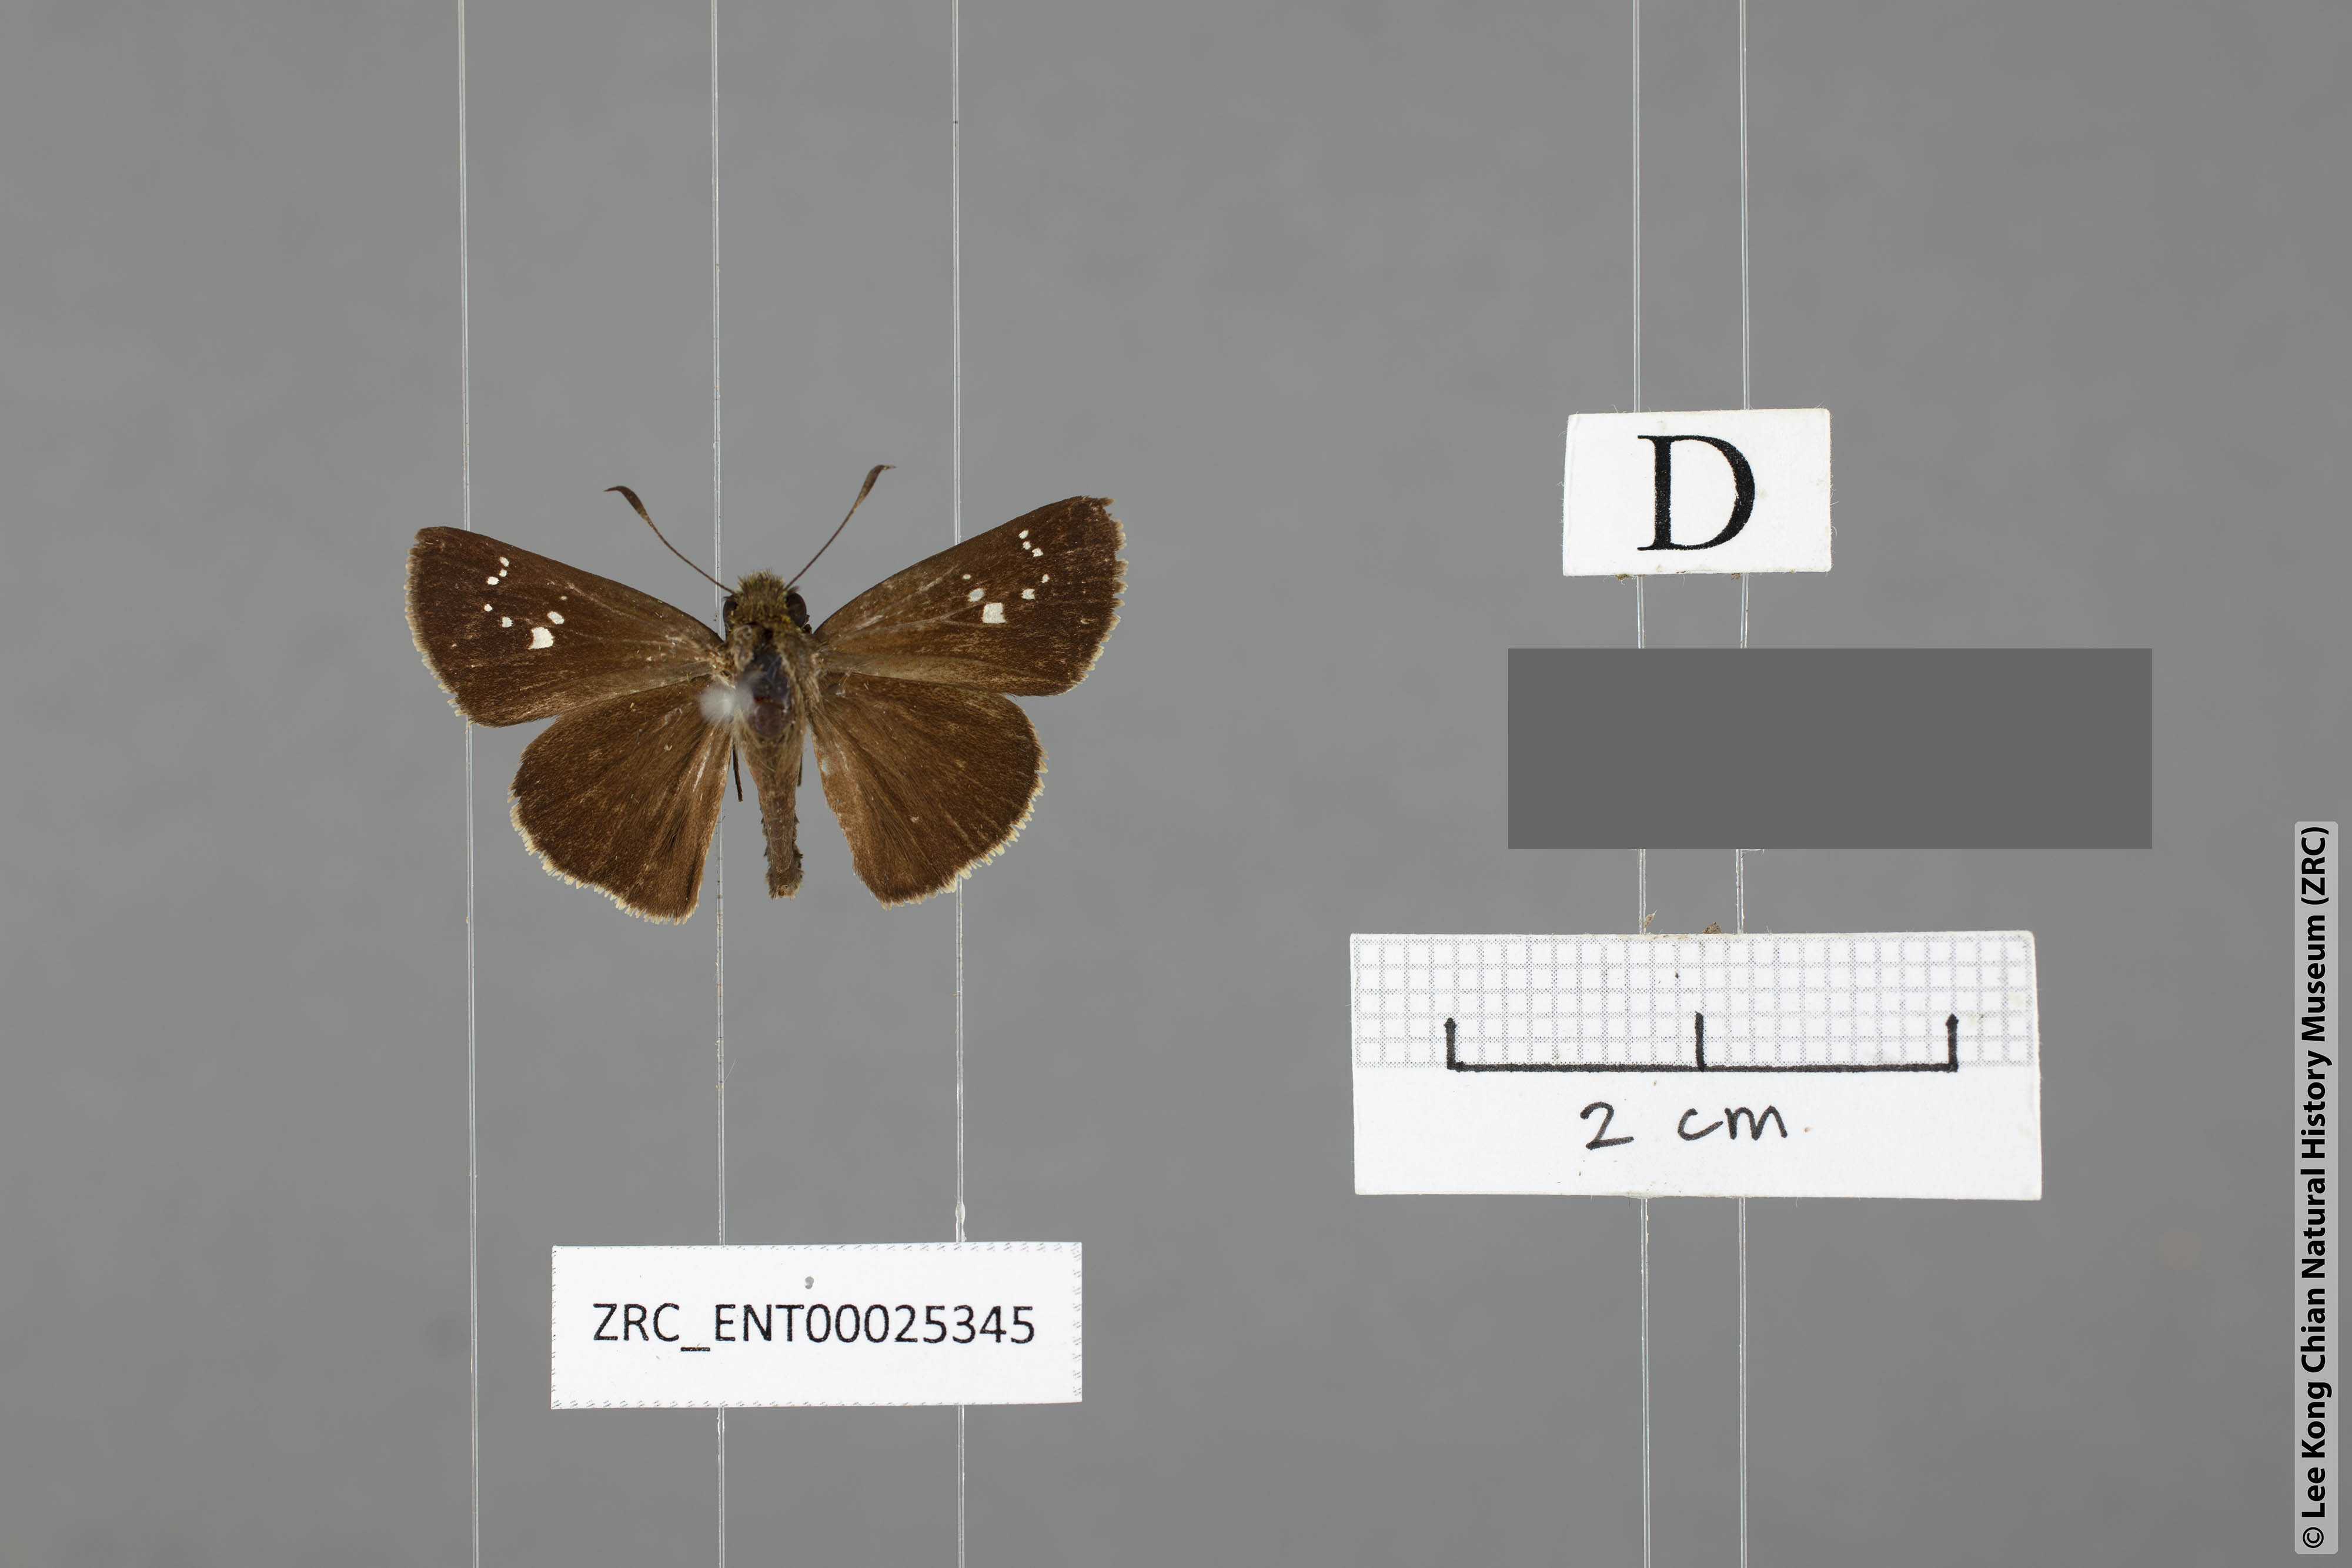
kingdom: Animalia
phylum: Arthropoda
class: Insecta
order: Lepidoptera
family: Hesperiidae
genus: Polytremis
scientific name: Polytremis minuta
